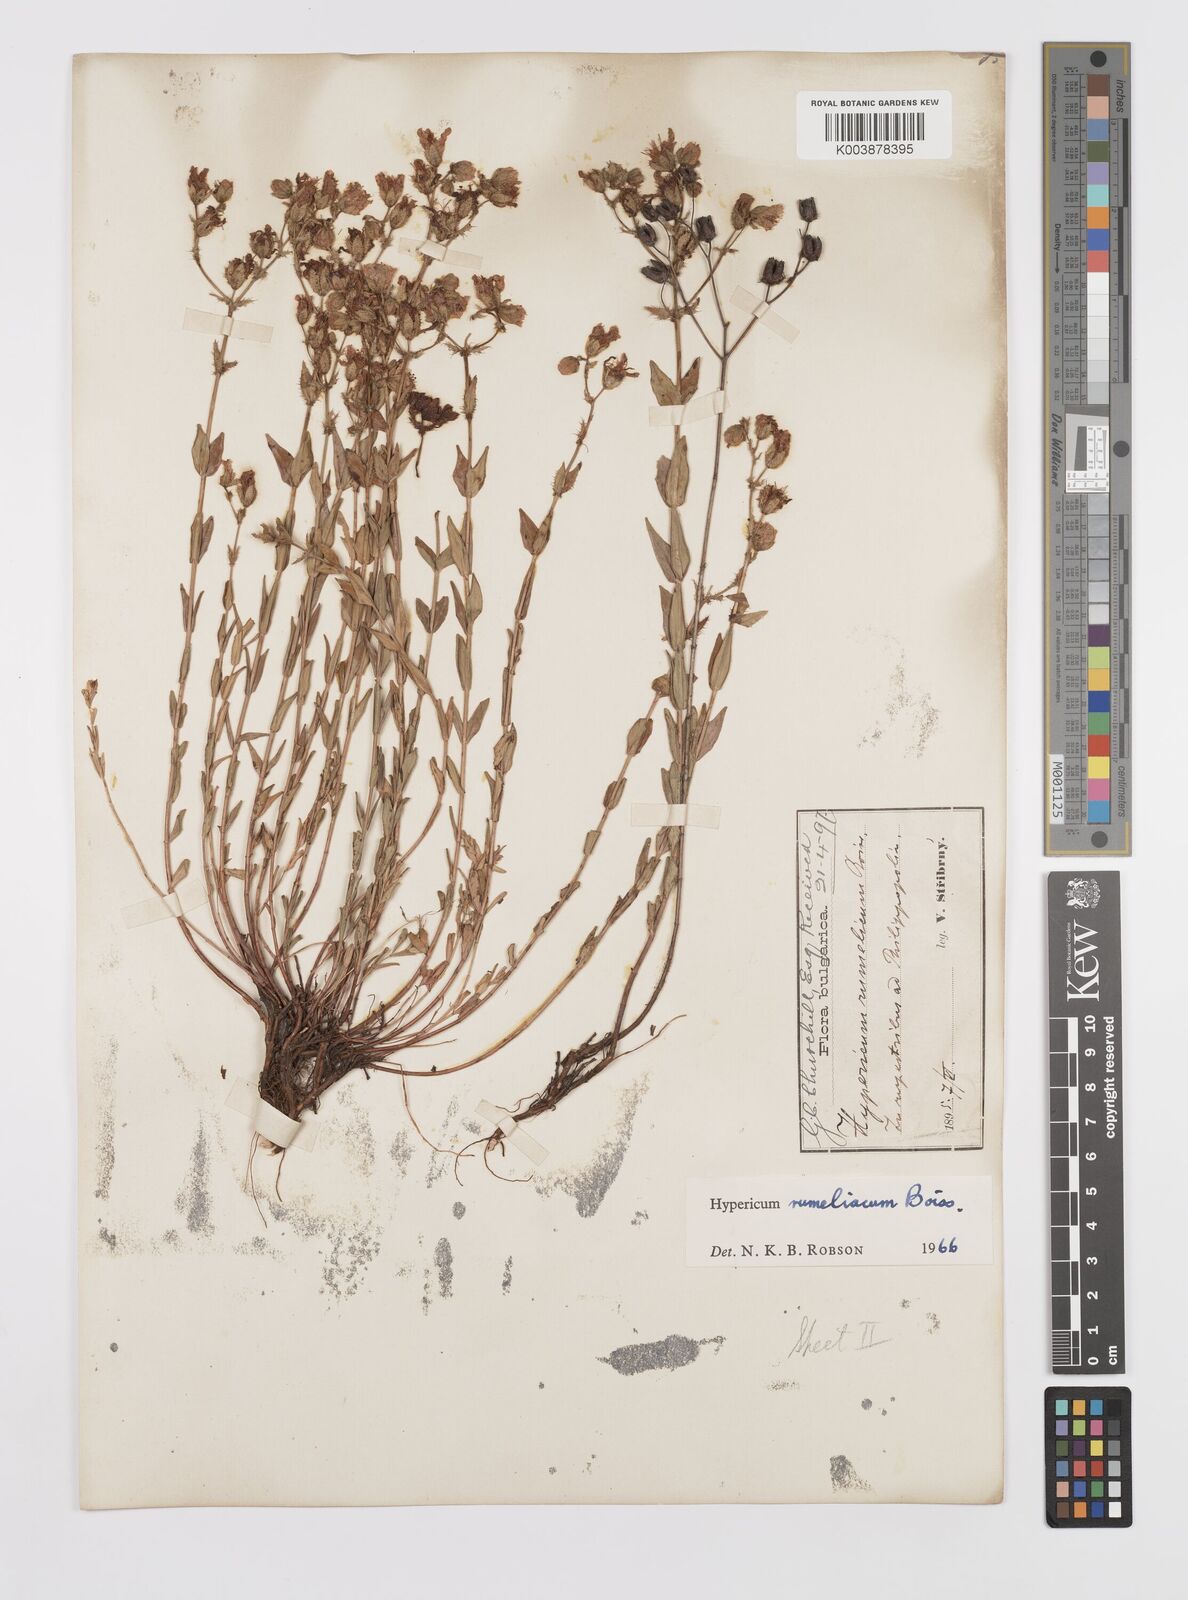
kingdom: Plantae
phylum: Tracheophyta
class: Magnoliopsida
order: Malpighiales
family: Hypericaceae
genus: Hypericum
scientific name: Hypericum rumeliacum
